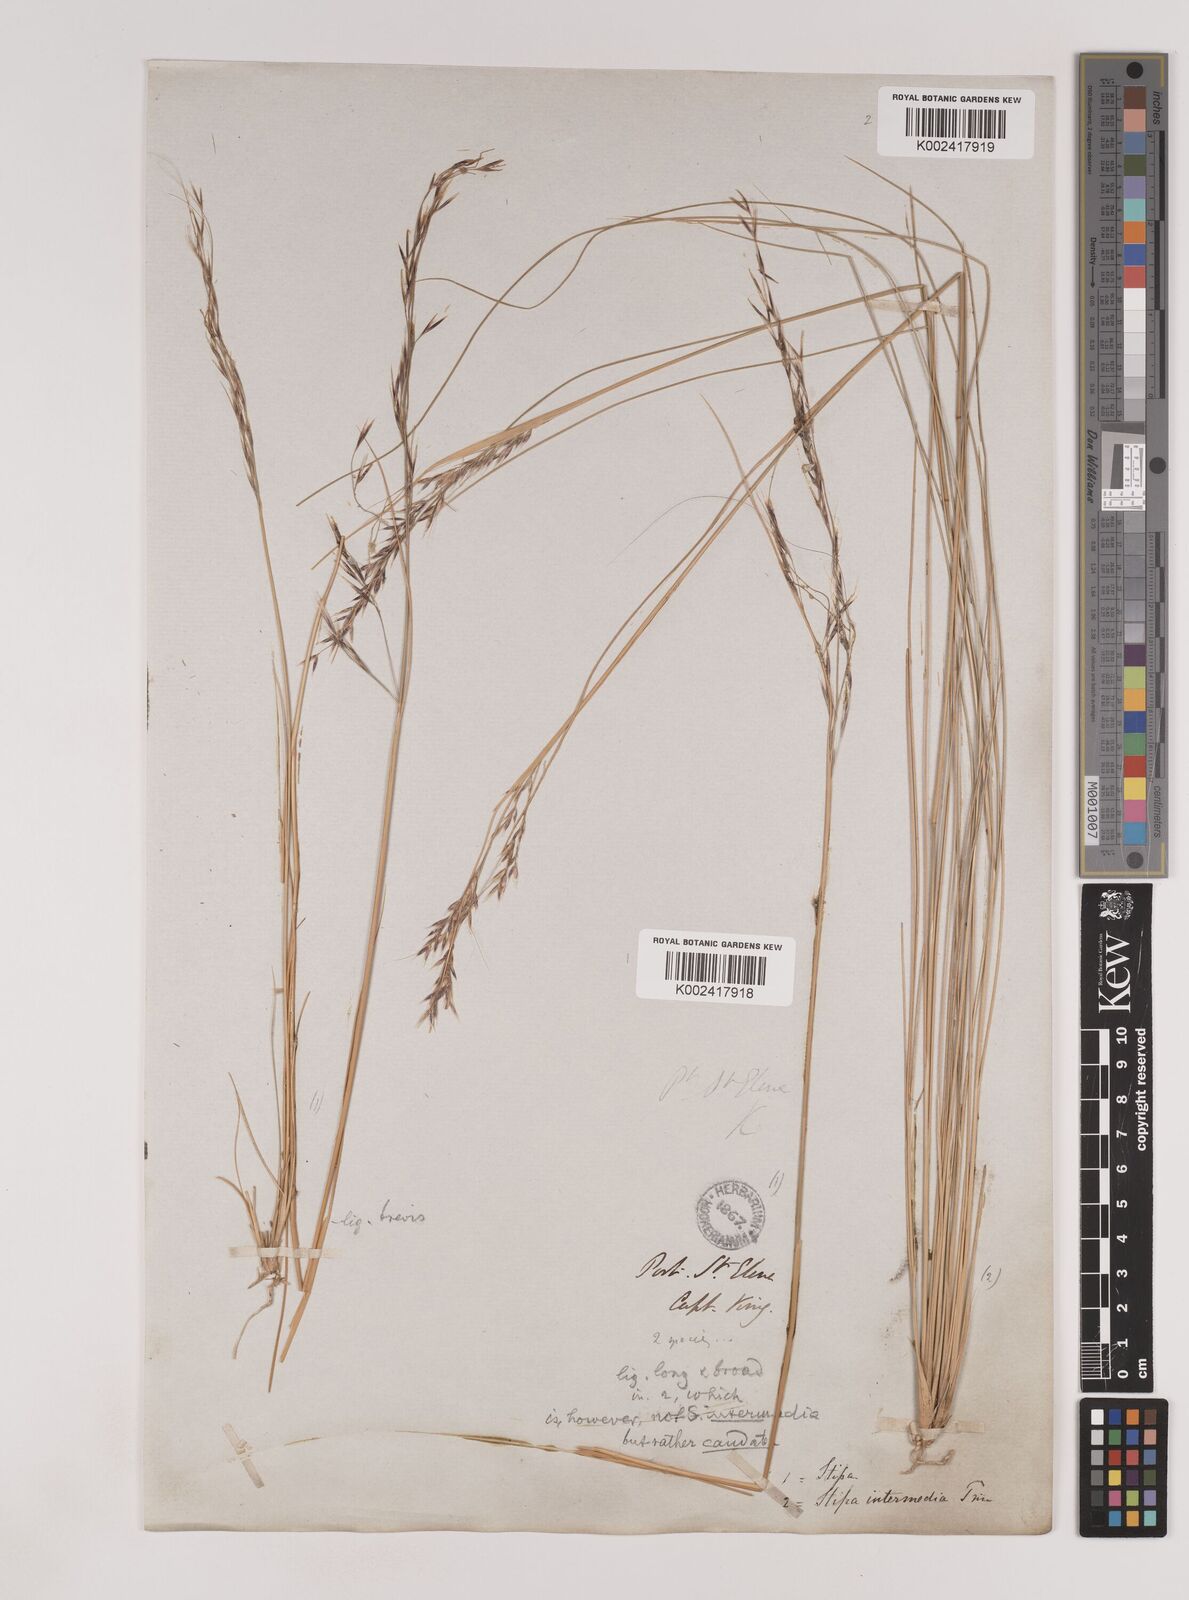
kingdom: Plantae
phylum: Tracheophyta
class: Liliopsida
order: Poales
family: Poaceae
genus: Nassella
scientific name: Nassella pampeana
